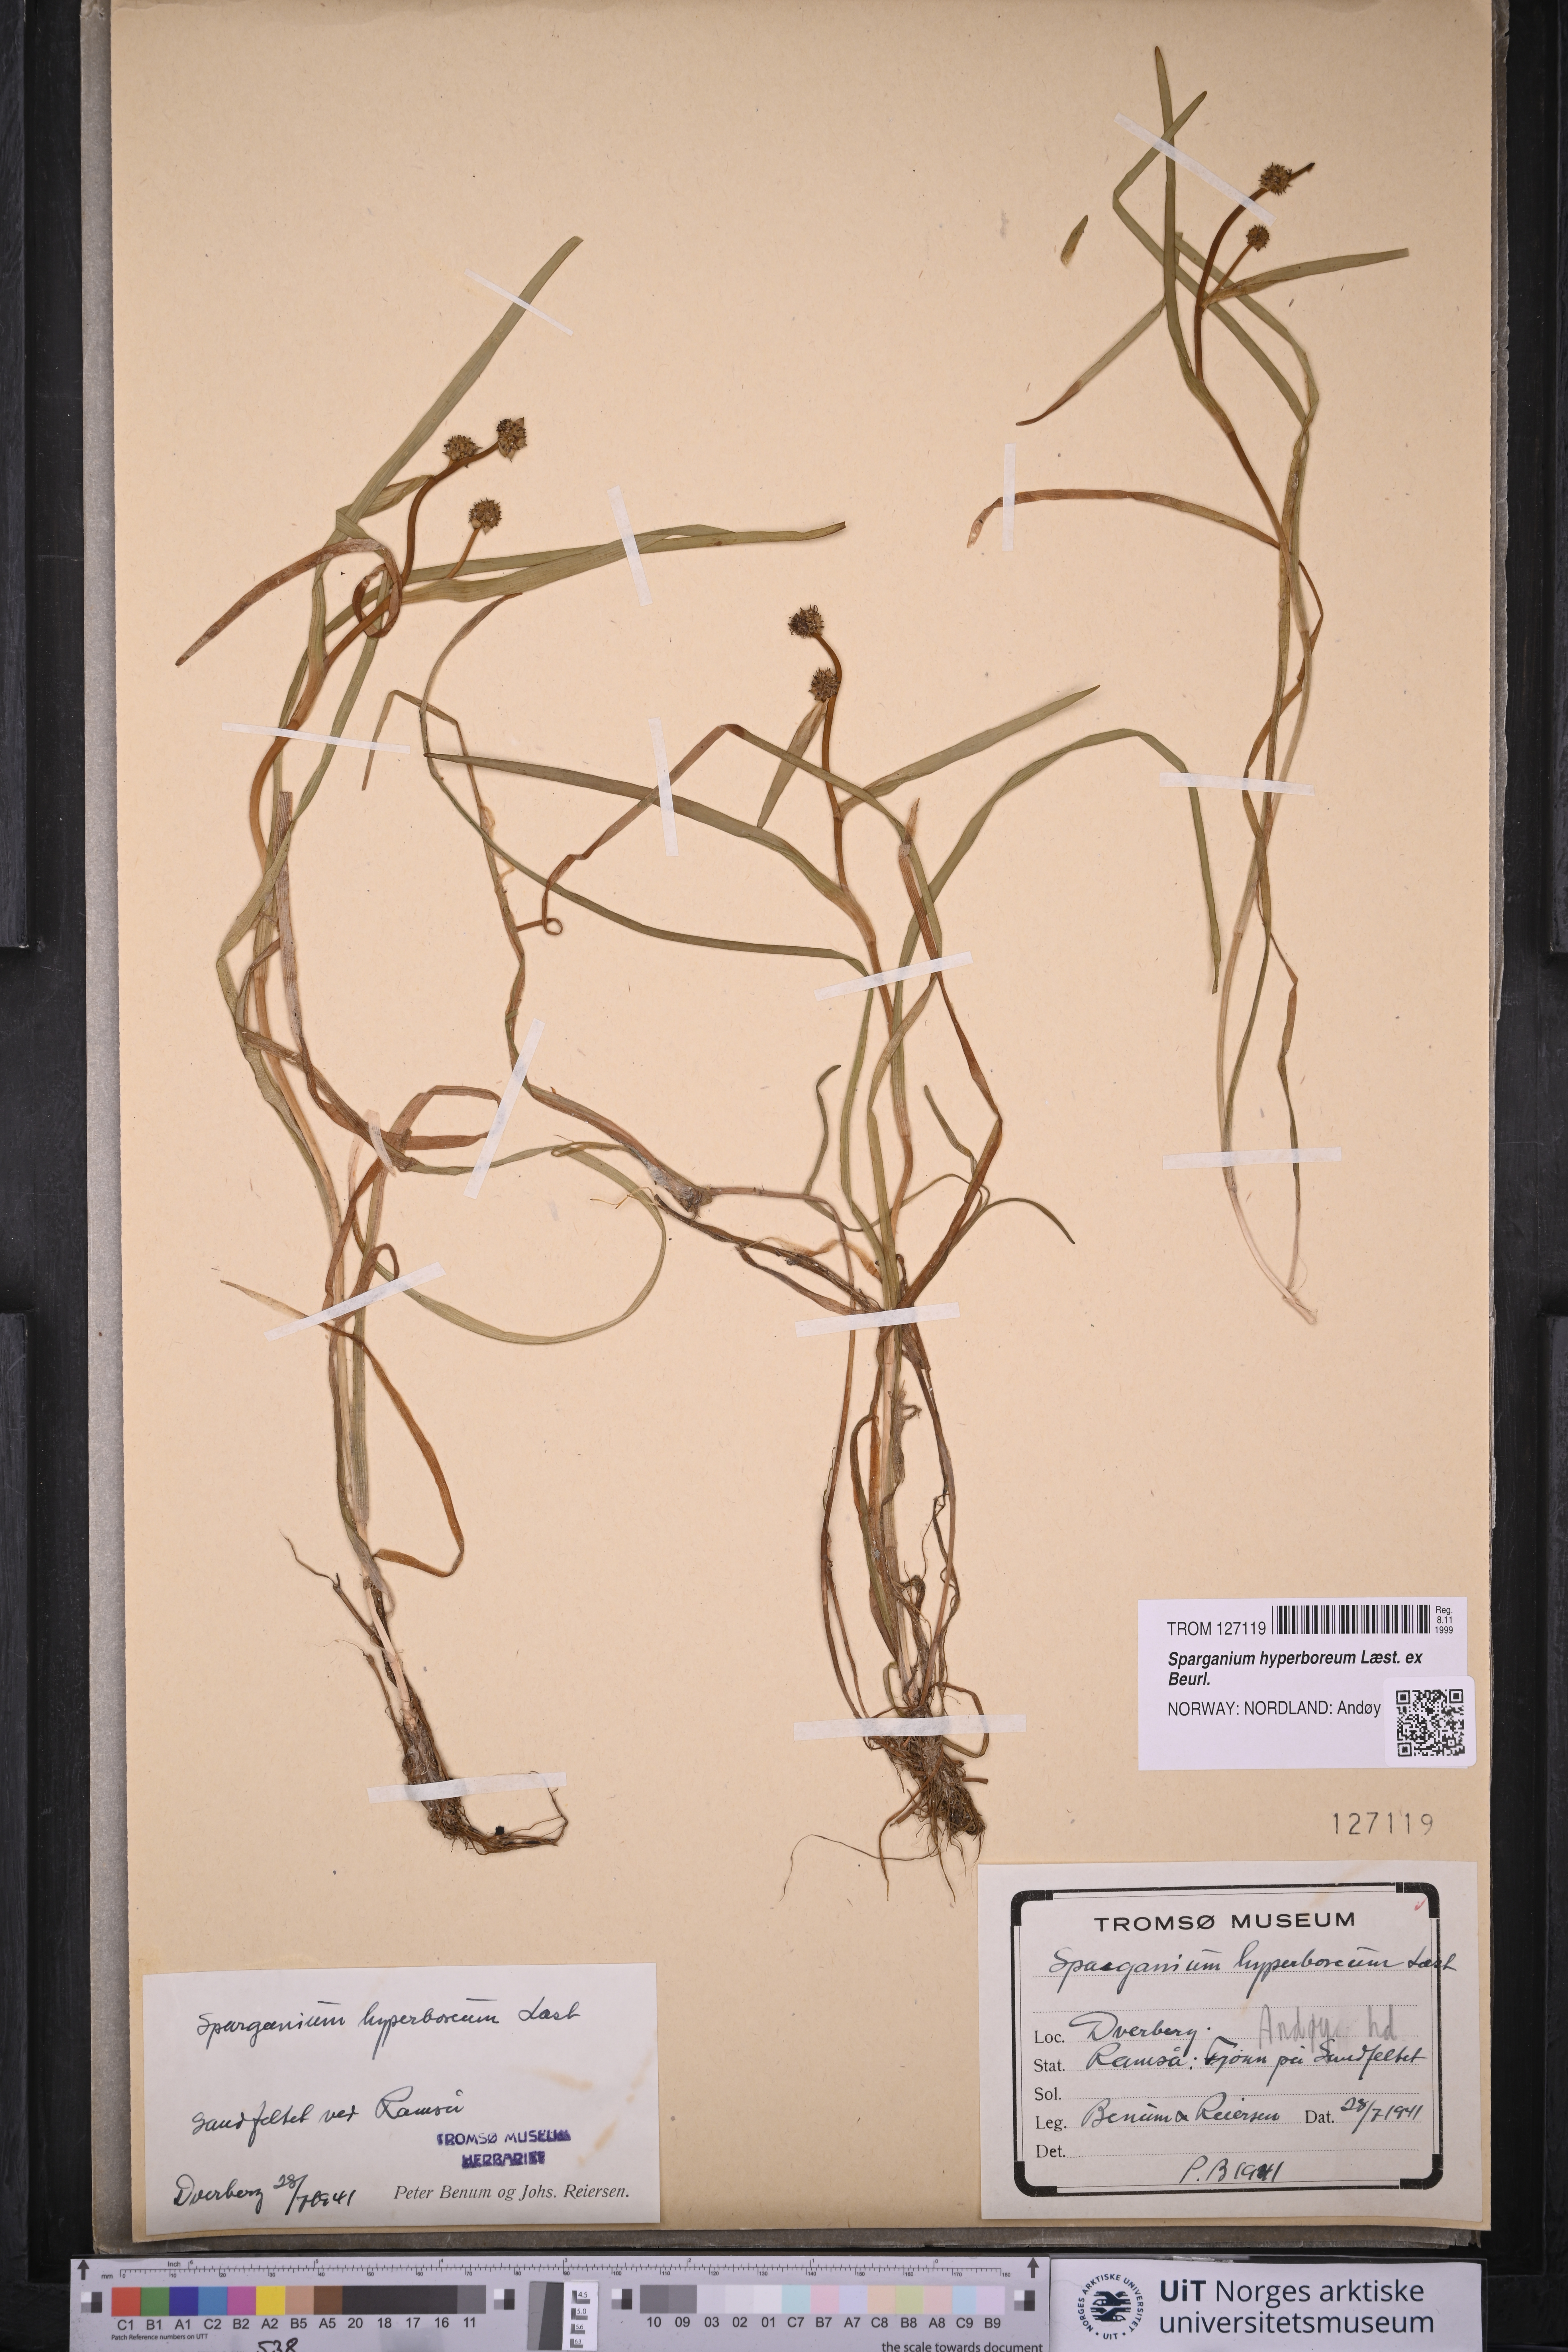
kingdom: Plantae
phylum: Tracheophyta
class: Liliopsida
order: Poales
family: Typhaceae
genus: Sparganium
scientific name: Sparganium hyperboreum
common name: Arctic burreed
